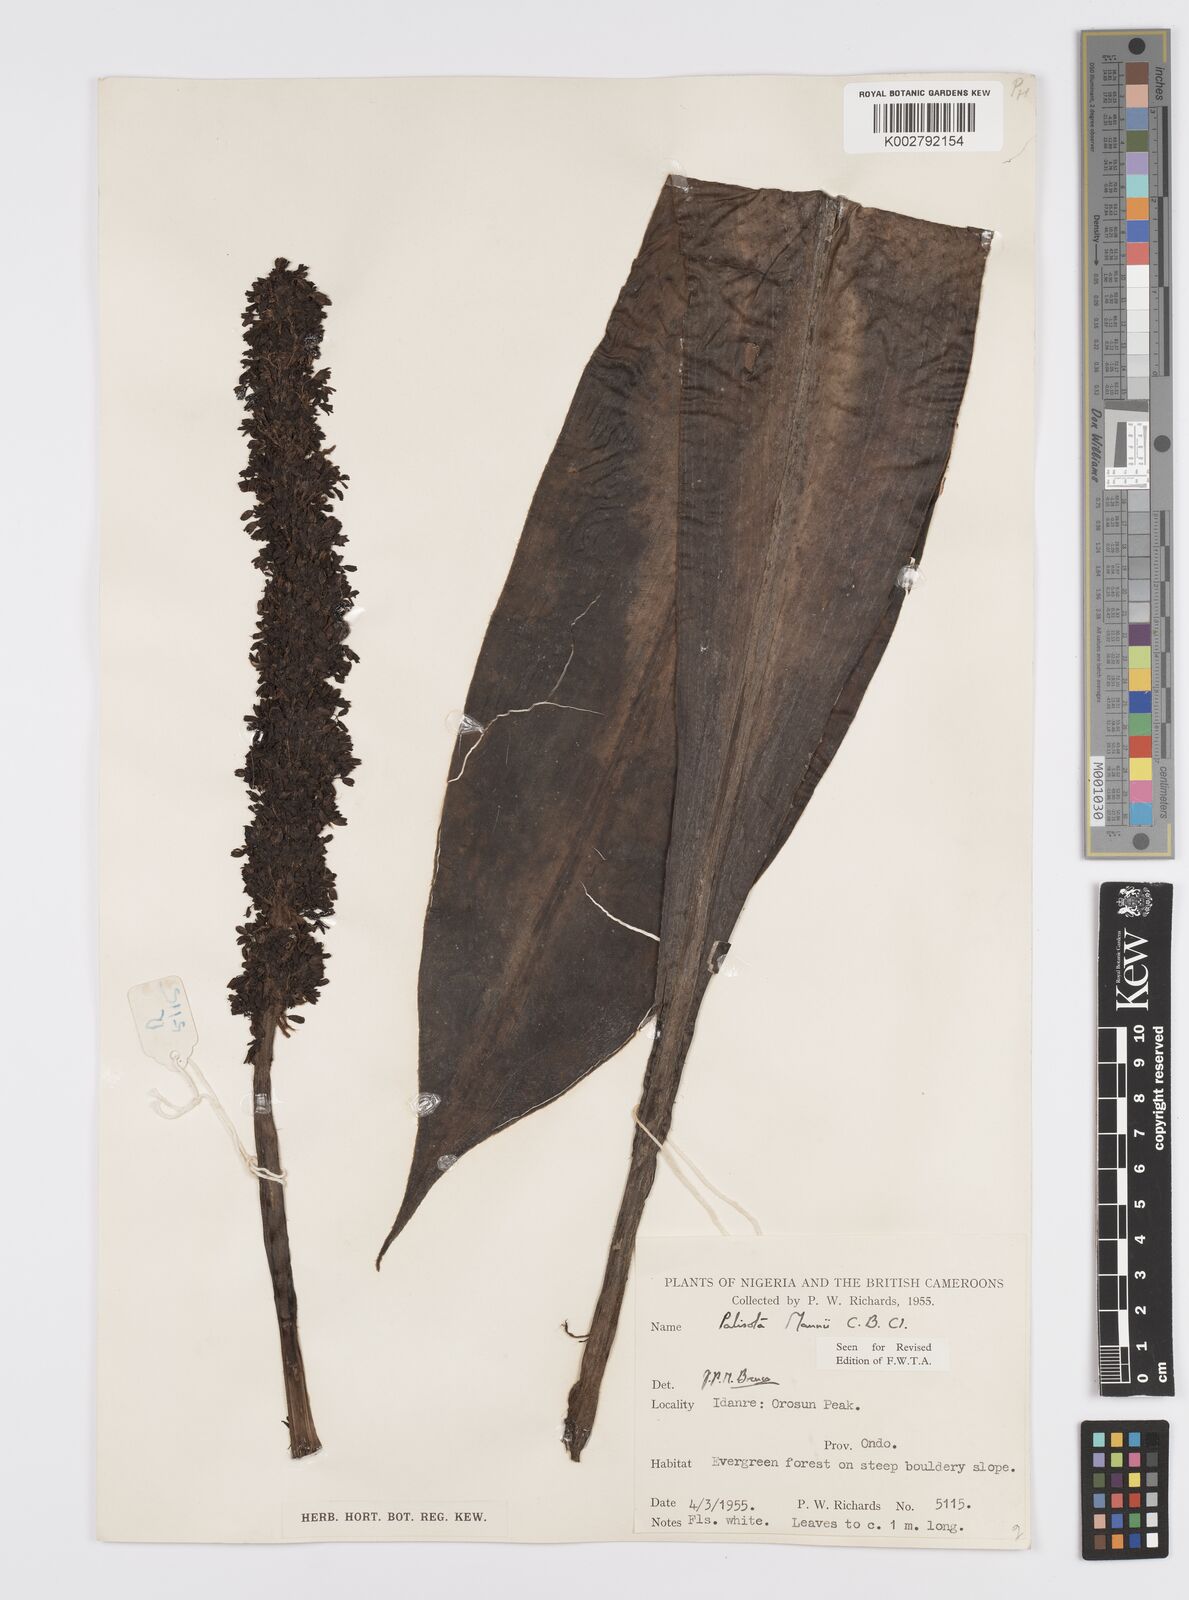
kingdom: Plantae
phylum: Tracheophyta
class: Liliopsida
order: Commelinales
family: Commelinaceae
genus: Palisota
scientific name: Palisota mannii
